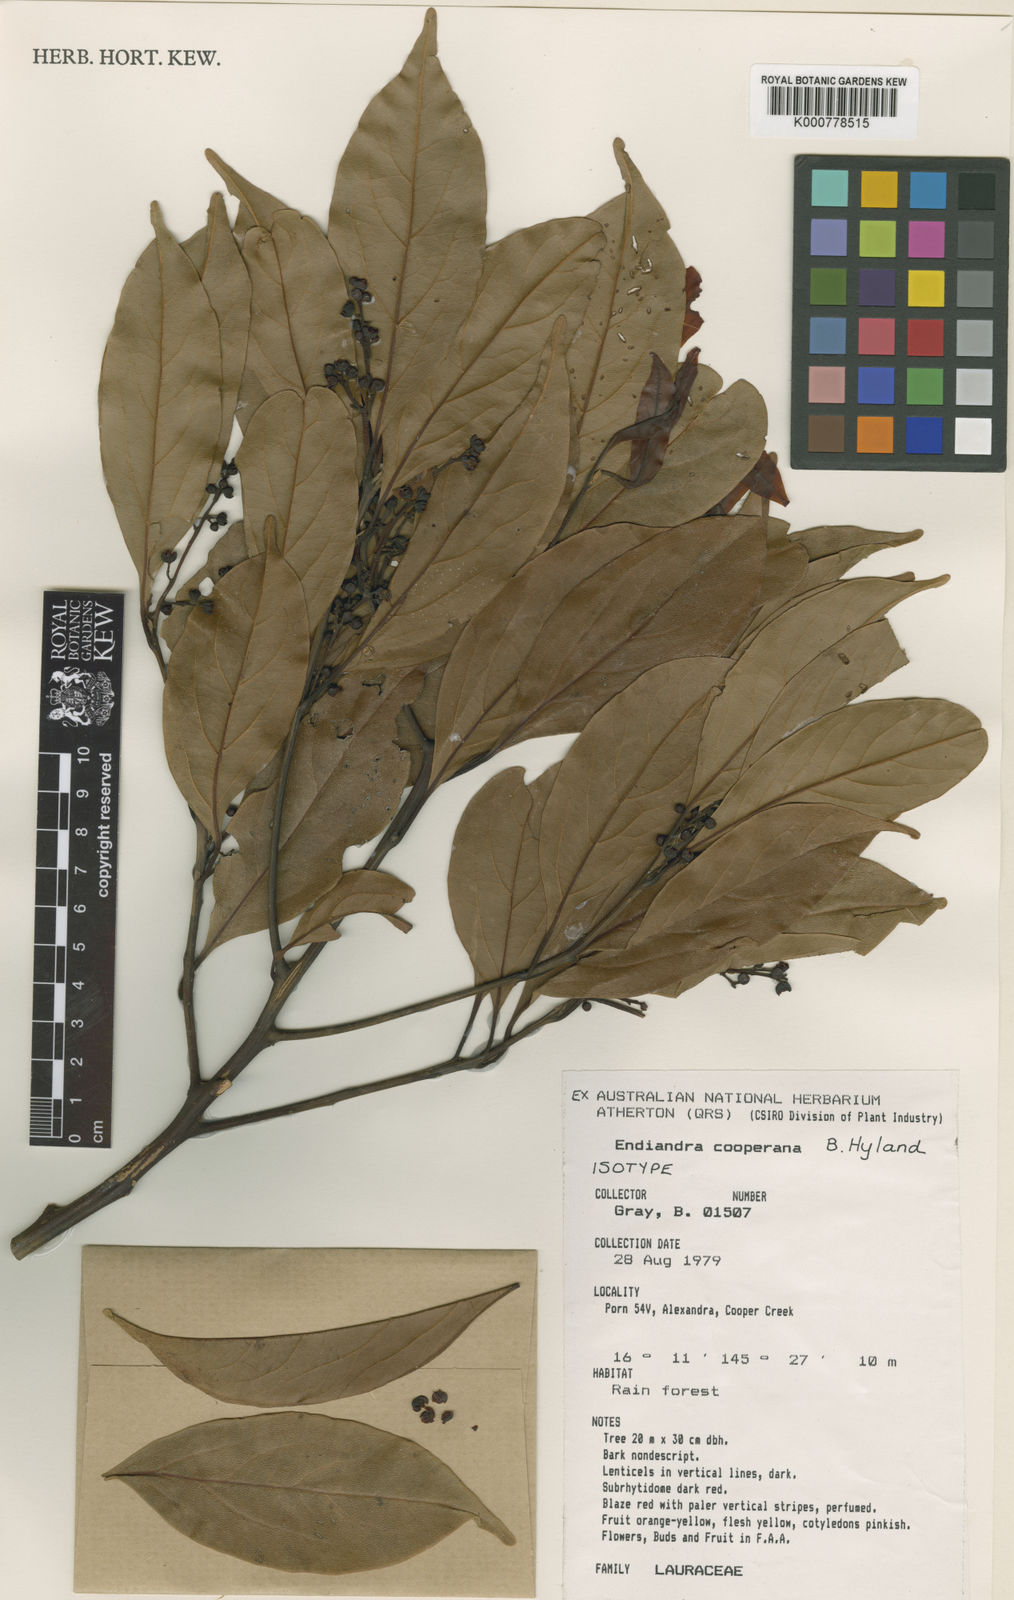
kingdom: Plantae
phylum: Tracheophyta
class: Magnoliopsida
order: Laurales
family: Lauraceae
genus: Endiandra
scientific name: Endiandra cooperana
